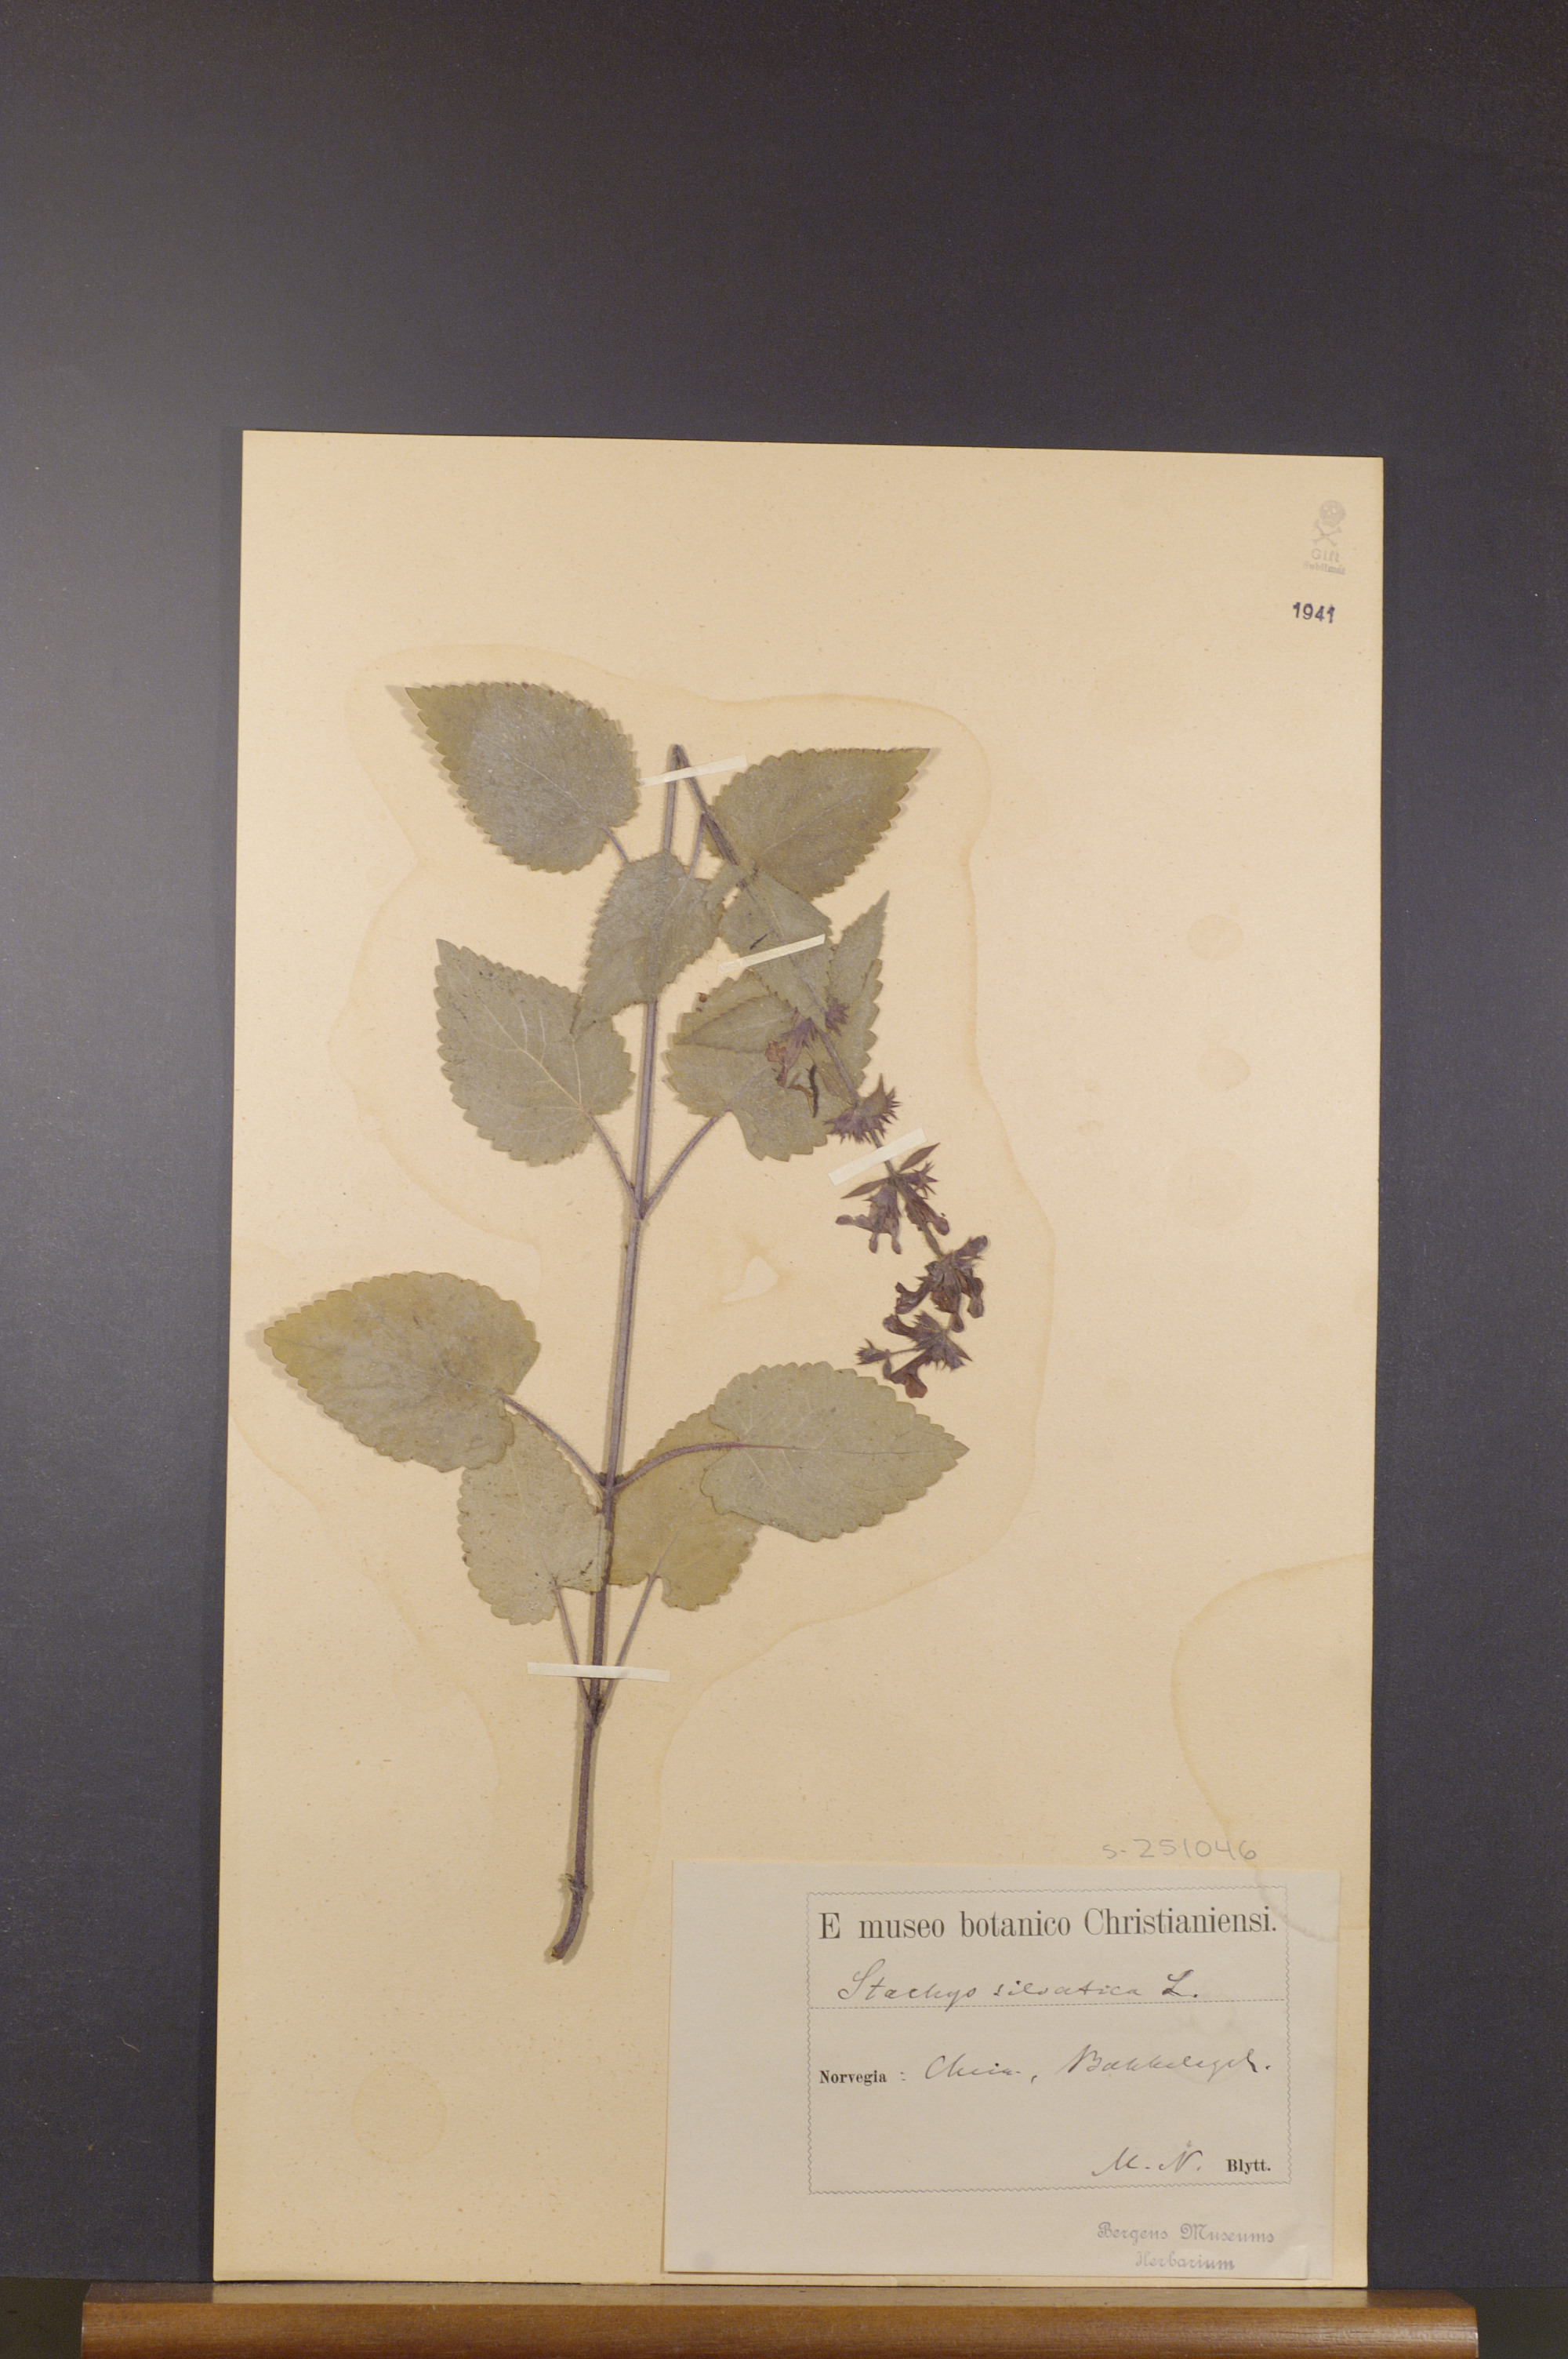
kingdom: Plantae
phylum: Tracheophyta
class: Magnoliopsida
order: Lamiales
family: Lamiaceae
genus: Stachys
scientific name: Stachys sylvatica
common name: Hedge woundwort
